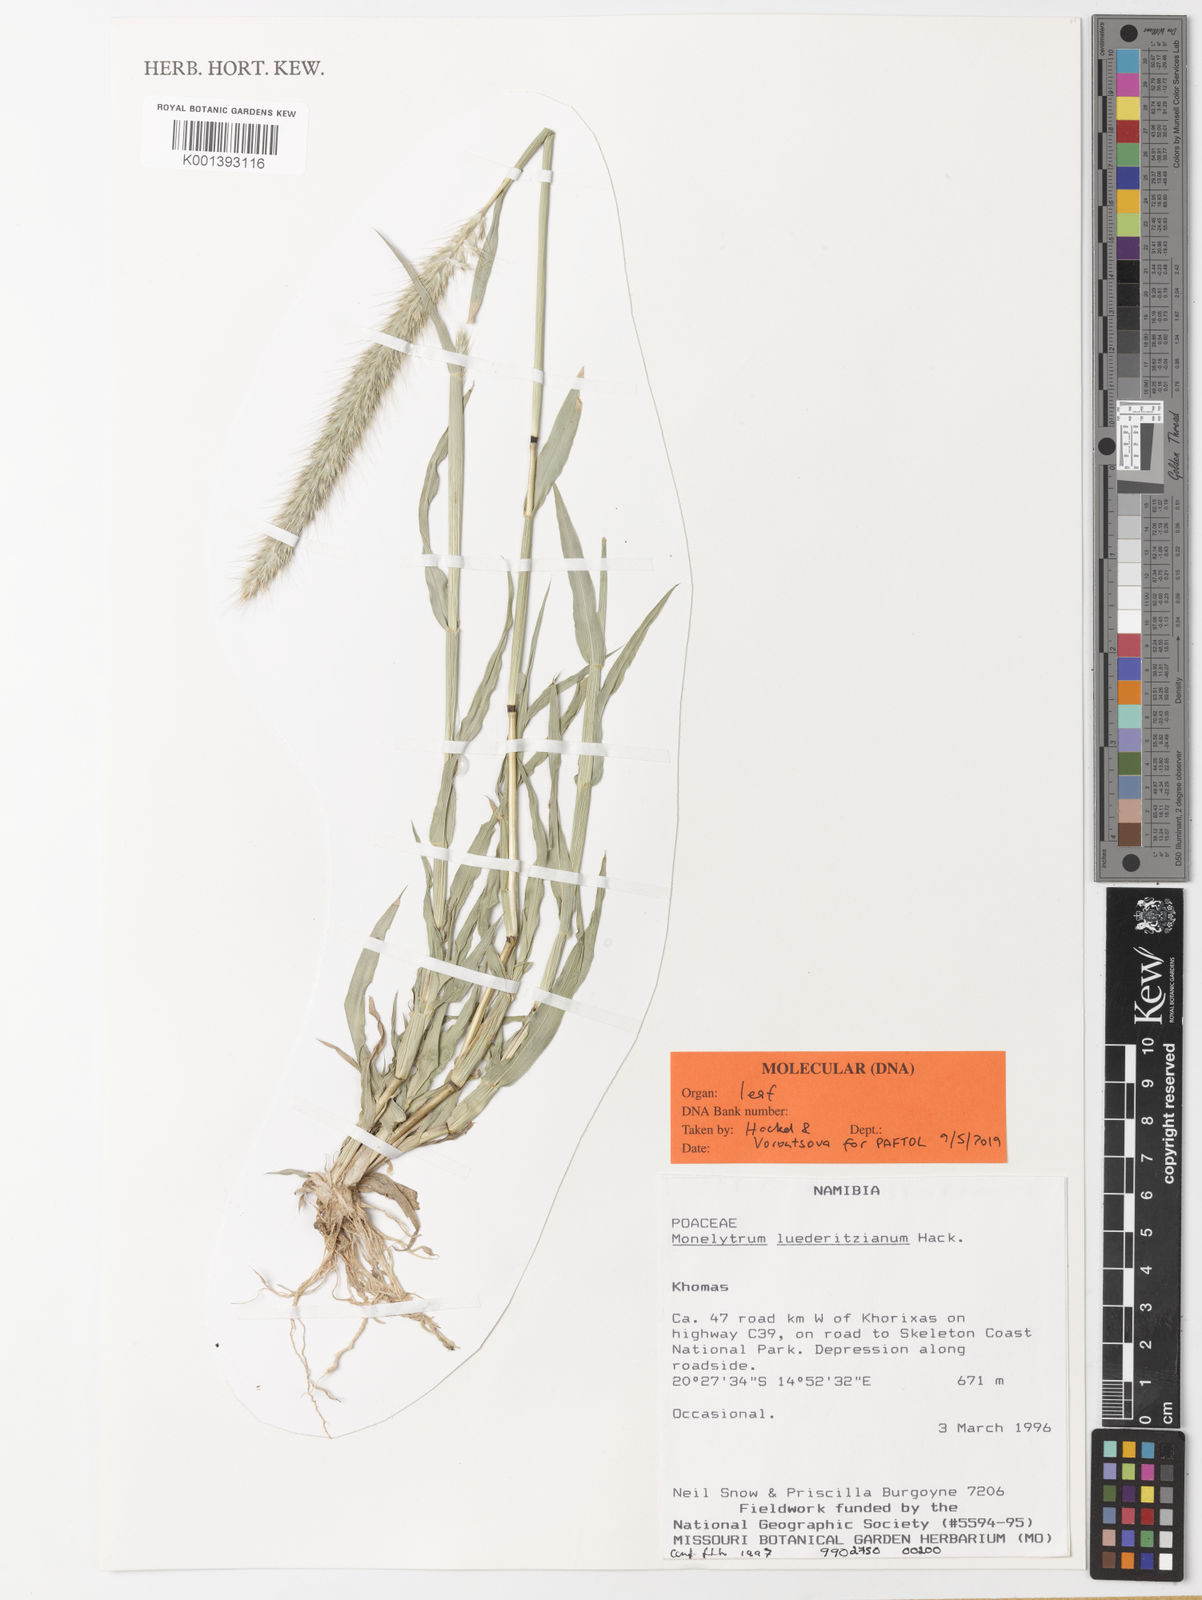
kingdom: Plantae
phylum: Tracheophyta
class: Liliopsida
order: Poales
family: Poaceae
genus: Monelytrum
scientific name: Monelytrum luederitzianum
